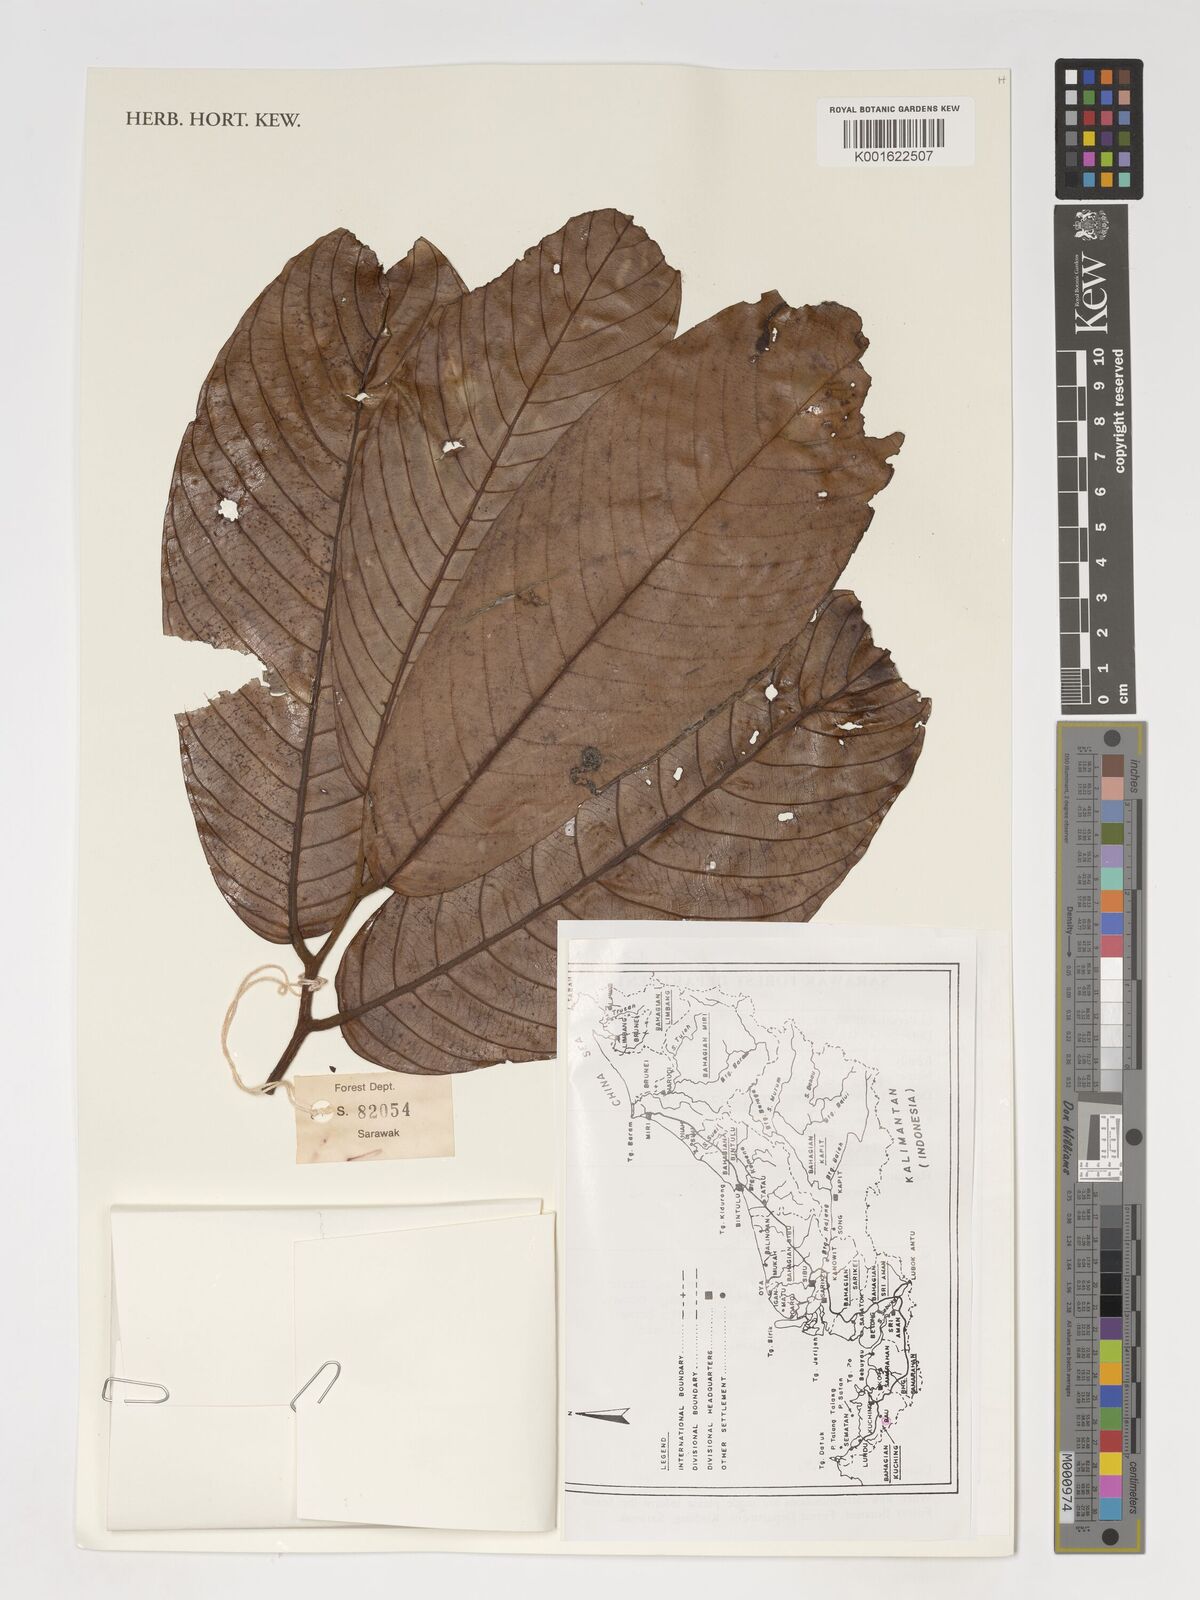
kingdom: Plantae
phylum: Tracheophyta
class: Magnoliopsida
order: Magnoliales
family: Annonaceae
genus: Monoon
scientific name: Monoon
